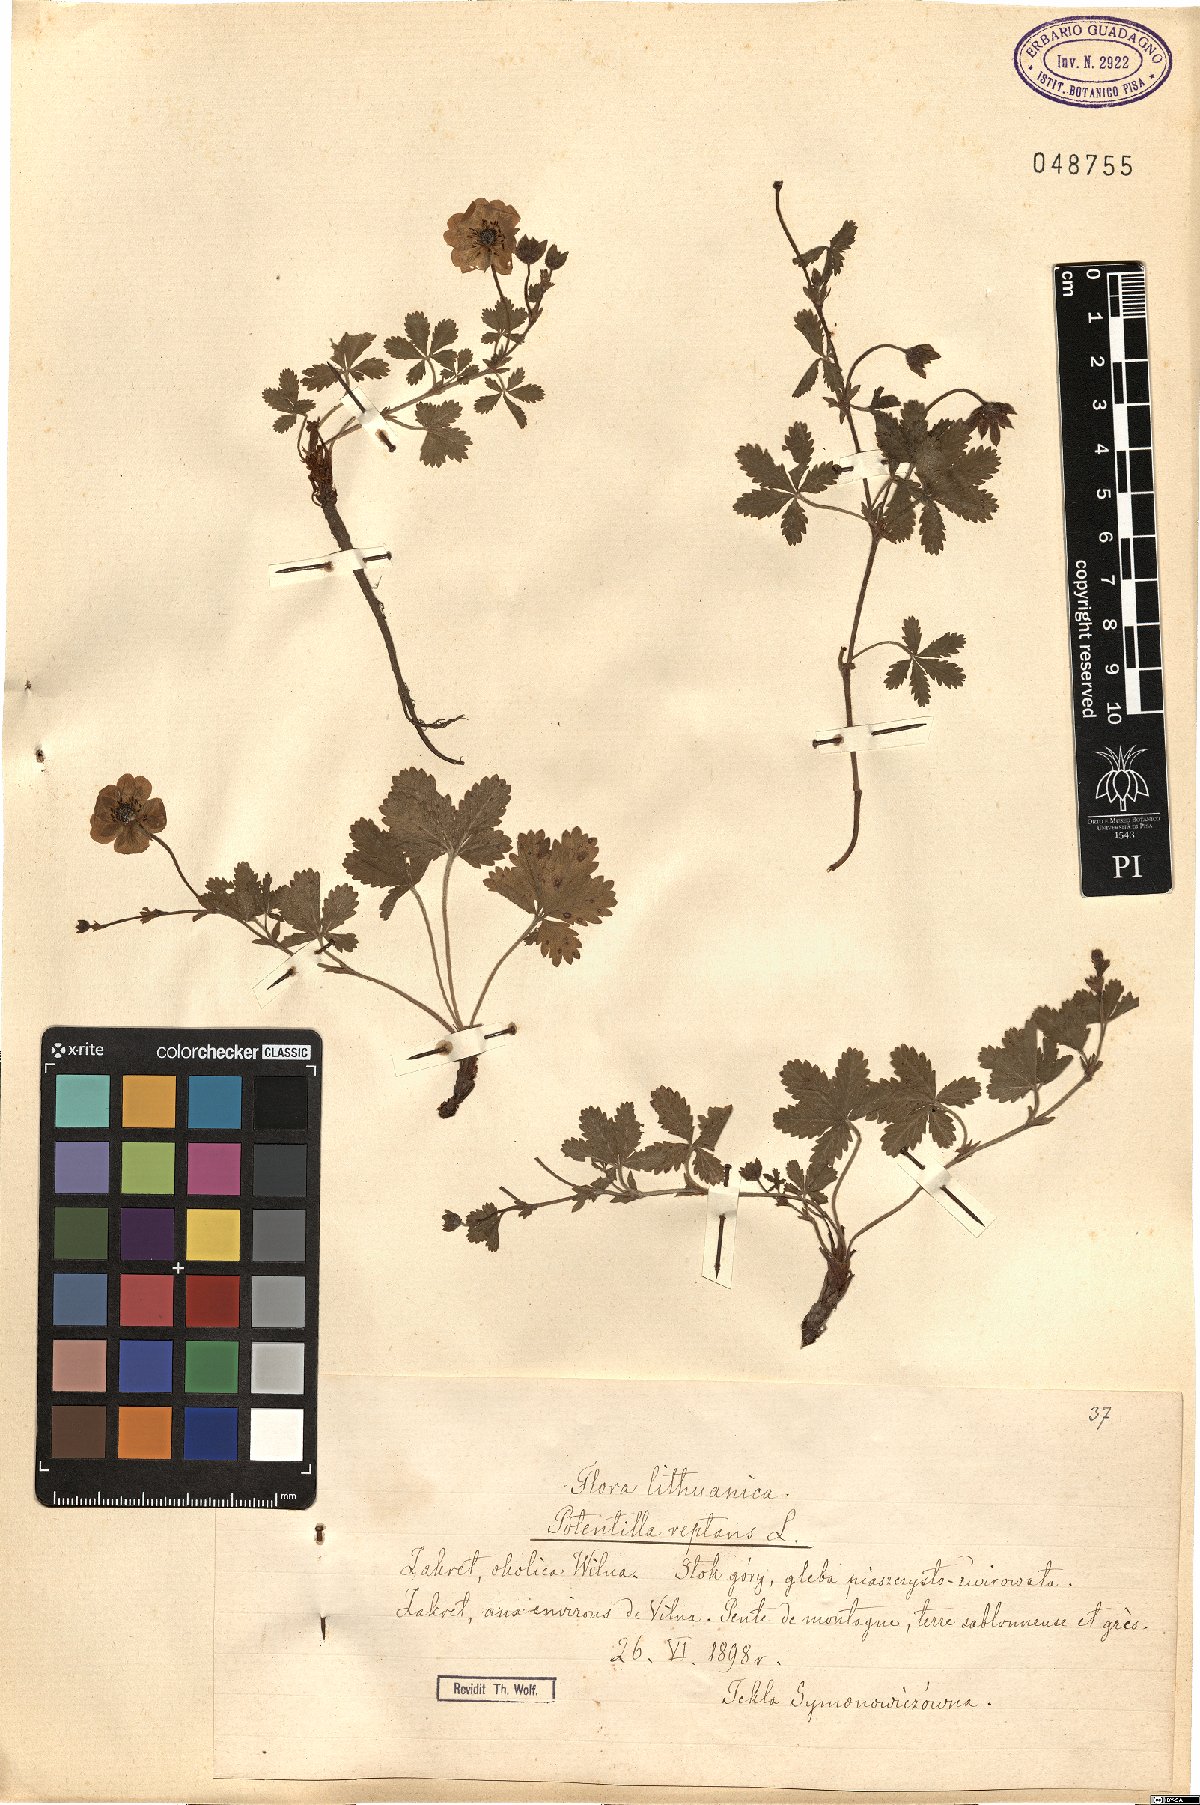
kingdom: Plantae
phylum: Tracheophyta
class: Magnoliopsida
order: Rosales
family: Rosaceae
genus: Potentilla
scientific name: Potentilla reptans
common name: Creeping cinquefoil
